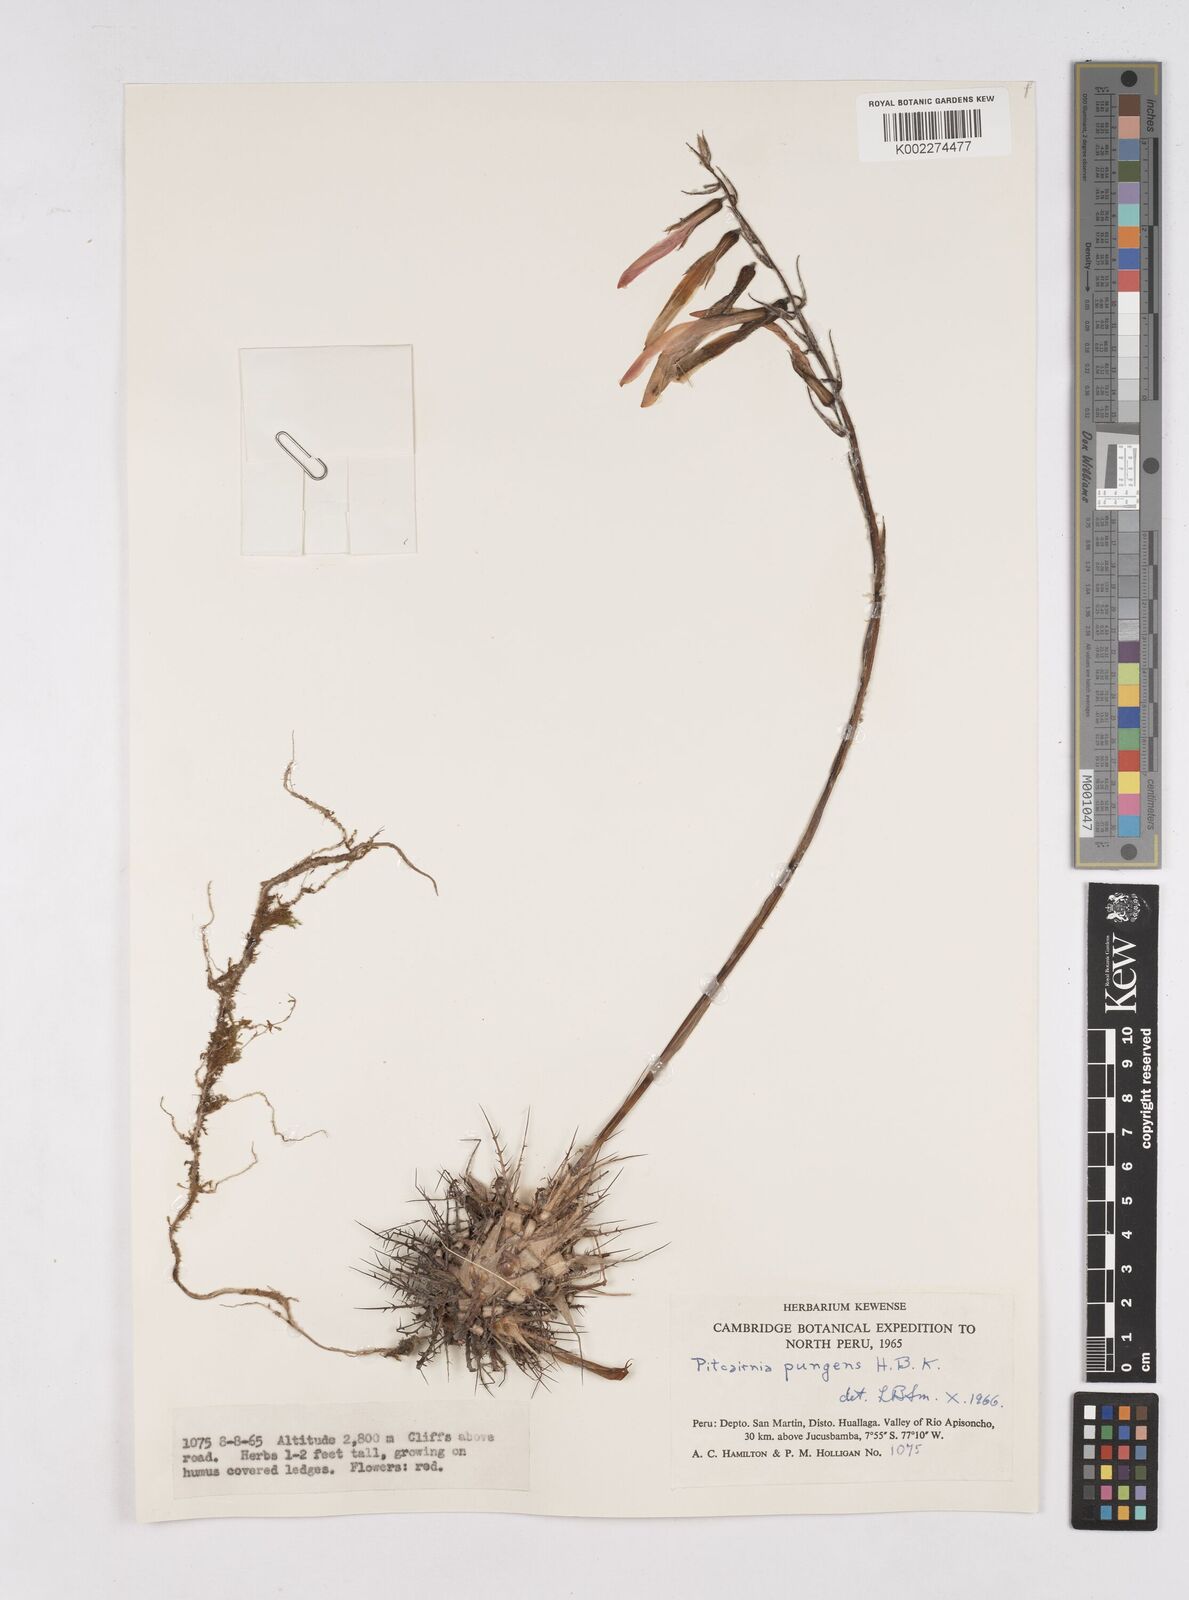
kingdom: Plantae
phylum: Tracheophyta
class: Liliopsida
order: Poales
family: Bromeliaceae
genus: Pitcairnia
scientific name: Pitcairnia pungens
